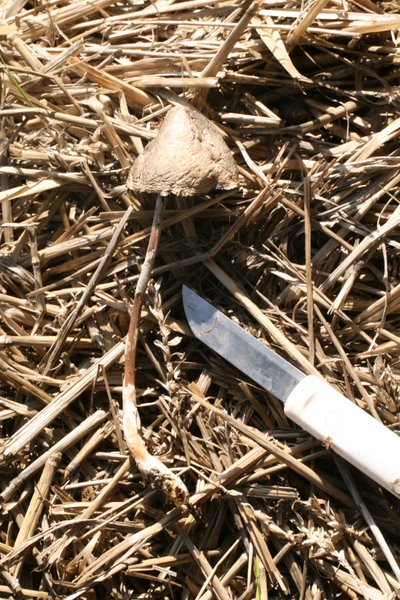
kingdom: Fungi
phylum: Basidiomycota
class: Agaricomycetes
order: Agaricales
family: Bolbitiaceae
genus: Panaeolus
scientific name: Panaeolus semiovatus
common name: ring-glanshat
